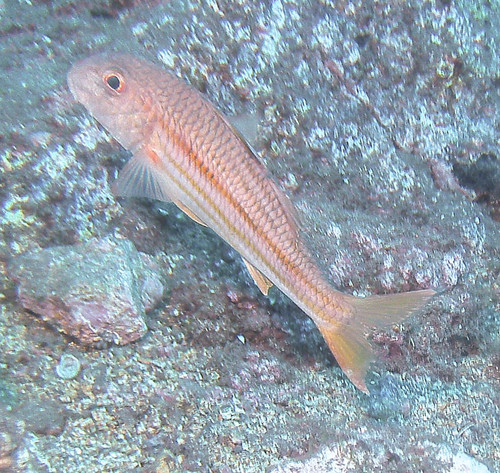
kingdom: Animalia
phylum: Chordata
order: Perciformes
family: Mullidae
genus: Mullus
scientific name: Mullus surmuletus
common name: Red mullet
